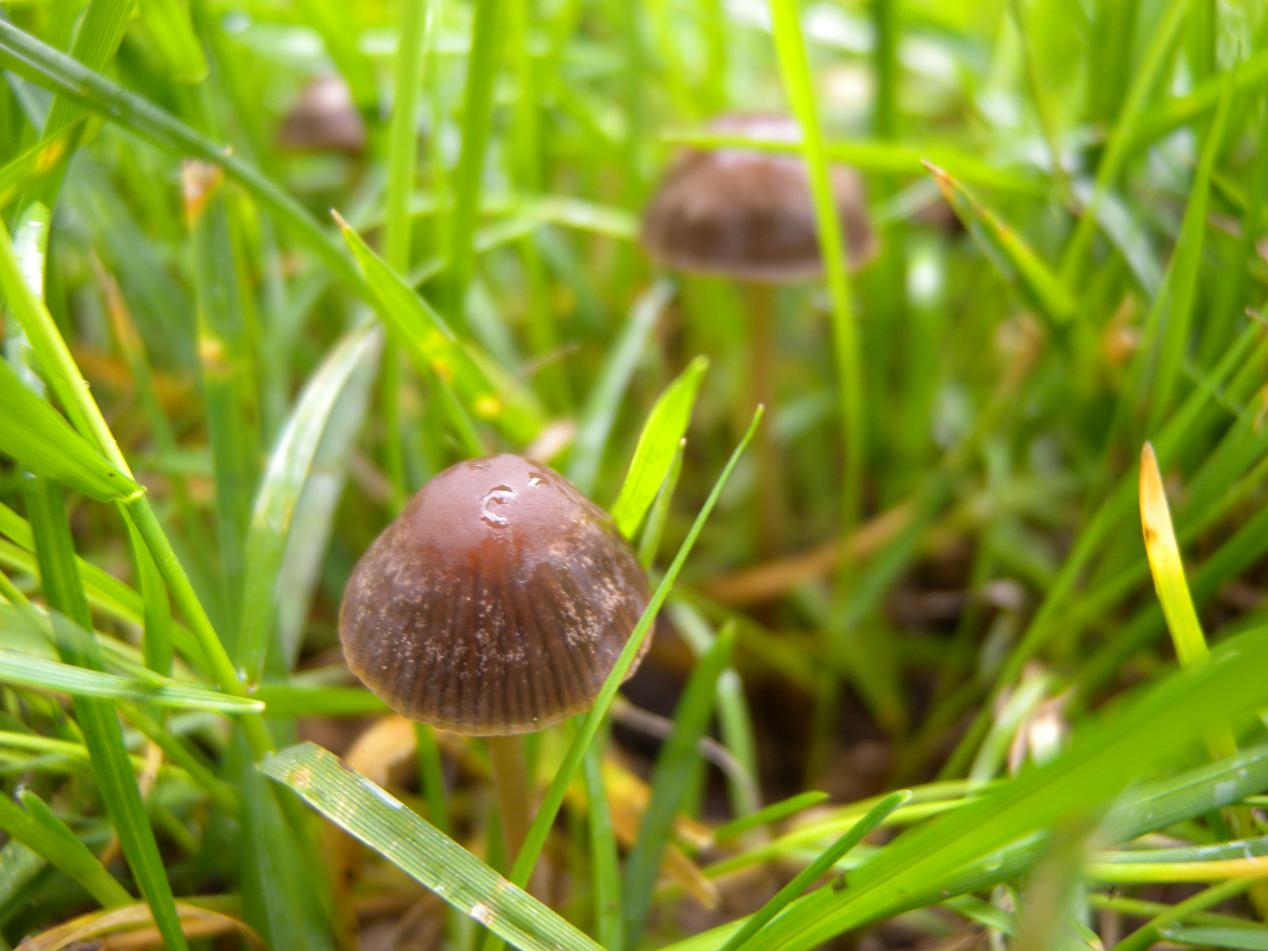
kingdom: Fungi
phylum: Basidiomycota
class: Agaricomycetes
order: Agaricales
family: Bolbitiaceae
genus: Panaeolina
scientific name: Panaeolina foenisecii
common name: høslætsvamp
